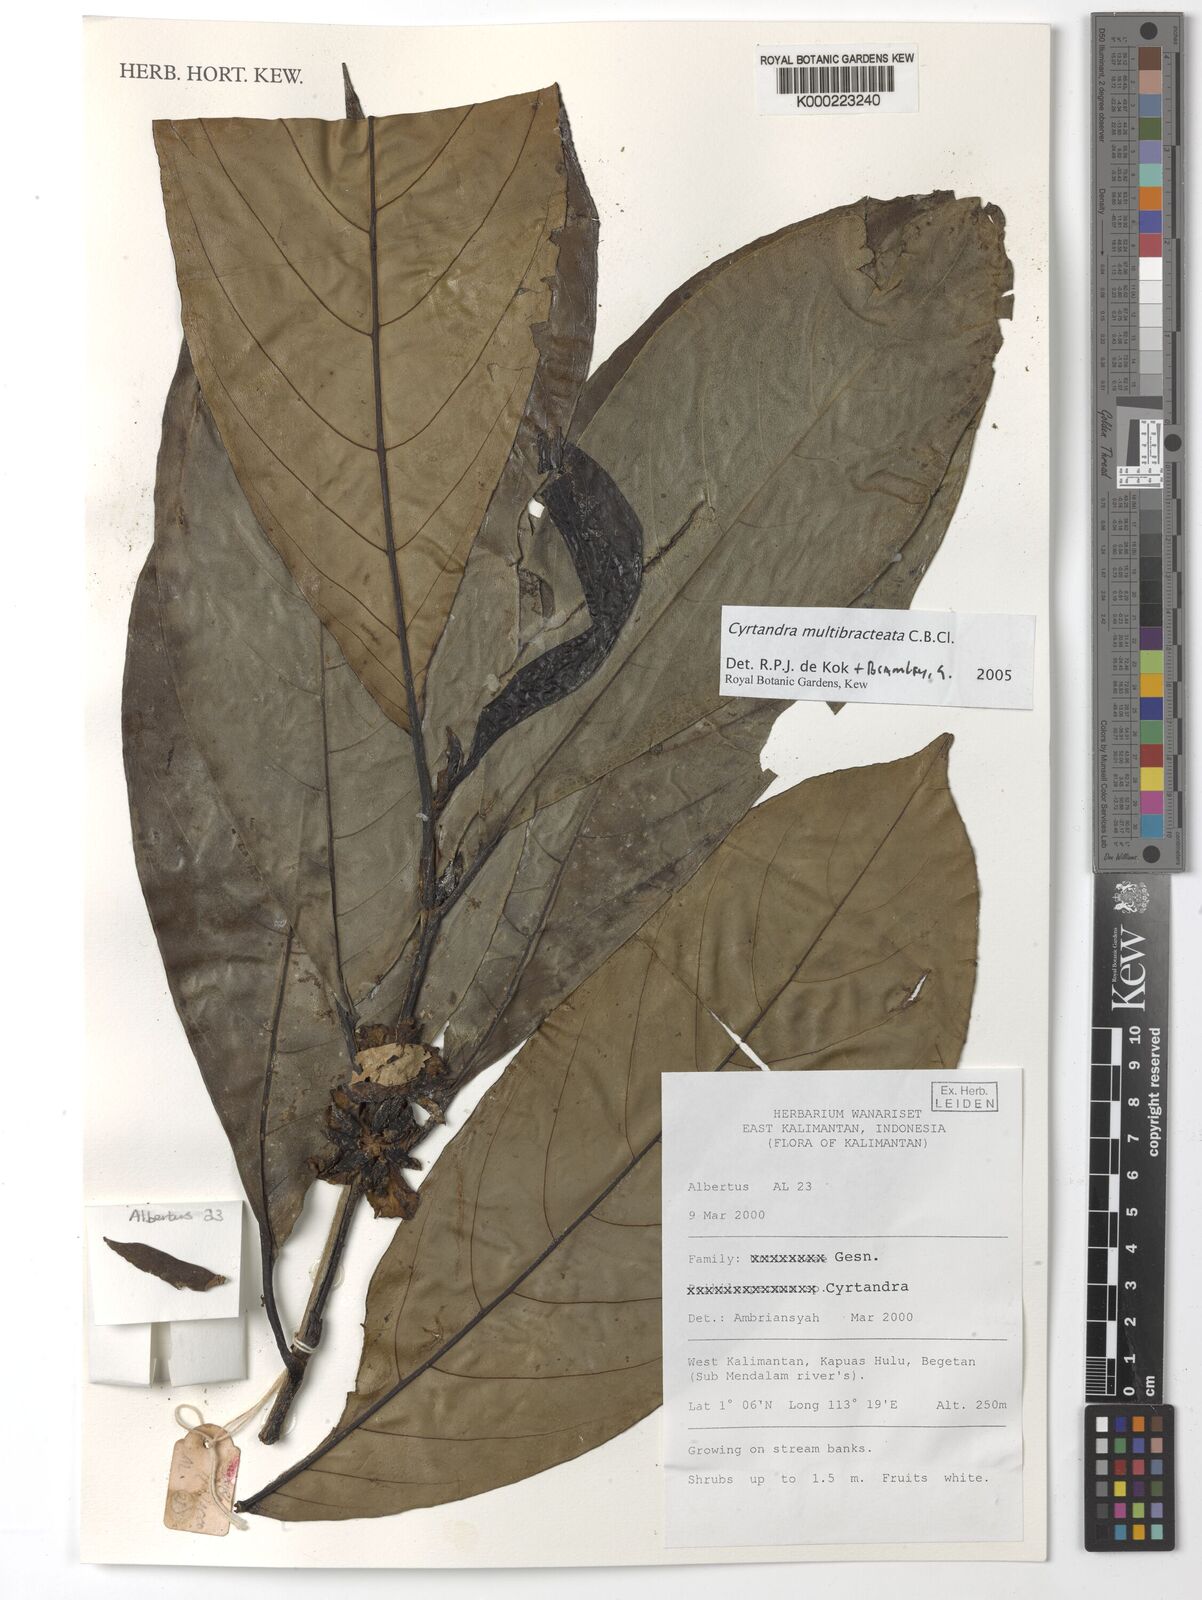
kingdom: Plantae
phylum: Tracheophyta
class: Magnoliopsida
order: Lamiales
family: Gesneriaceae
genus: Cyrtandra
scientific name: Cyrtandra
